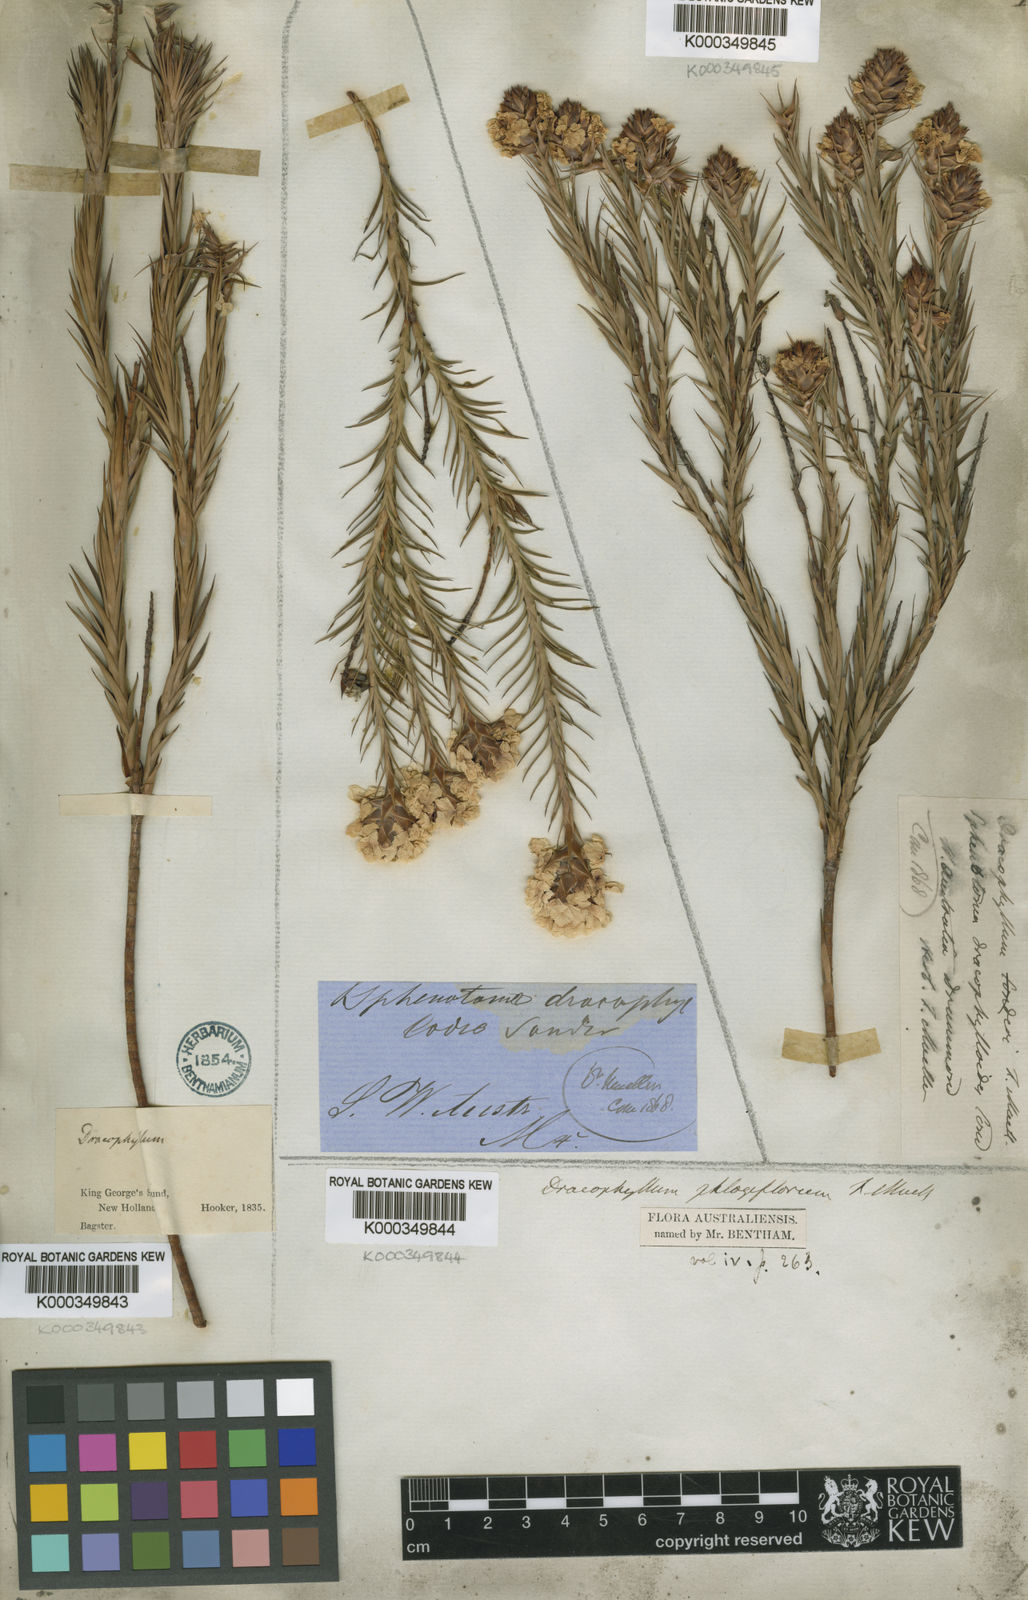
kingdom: Plantae
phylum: Tracheophyta
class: Magnoliopsida
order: Ericales
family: Ericaceae
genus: Dracophyllum
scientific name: Dracophyllum
